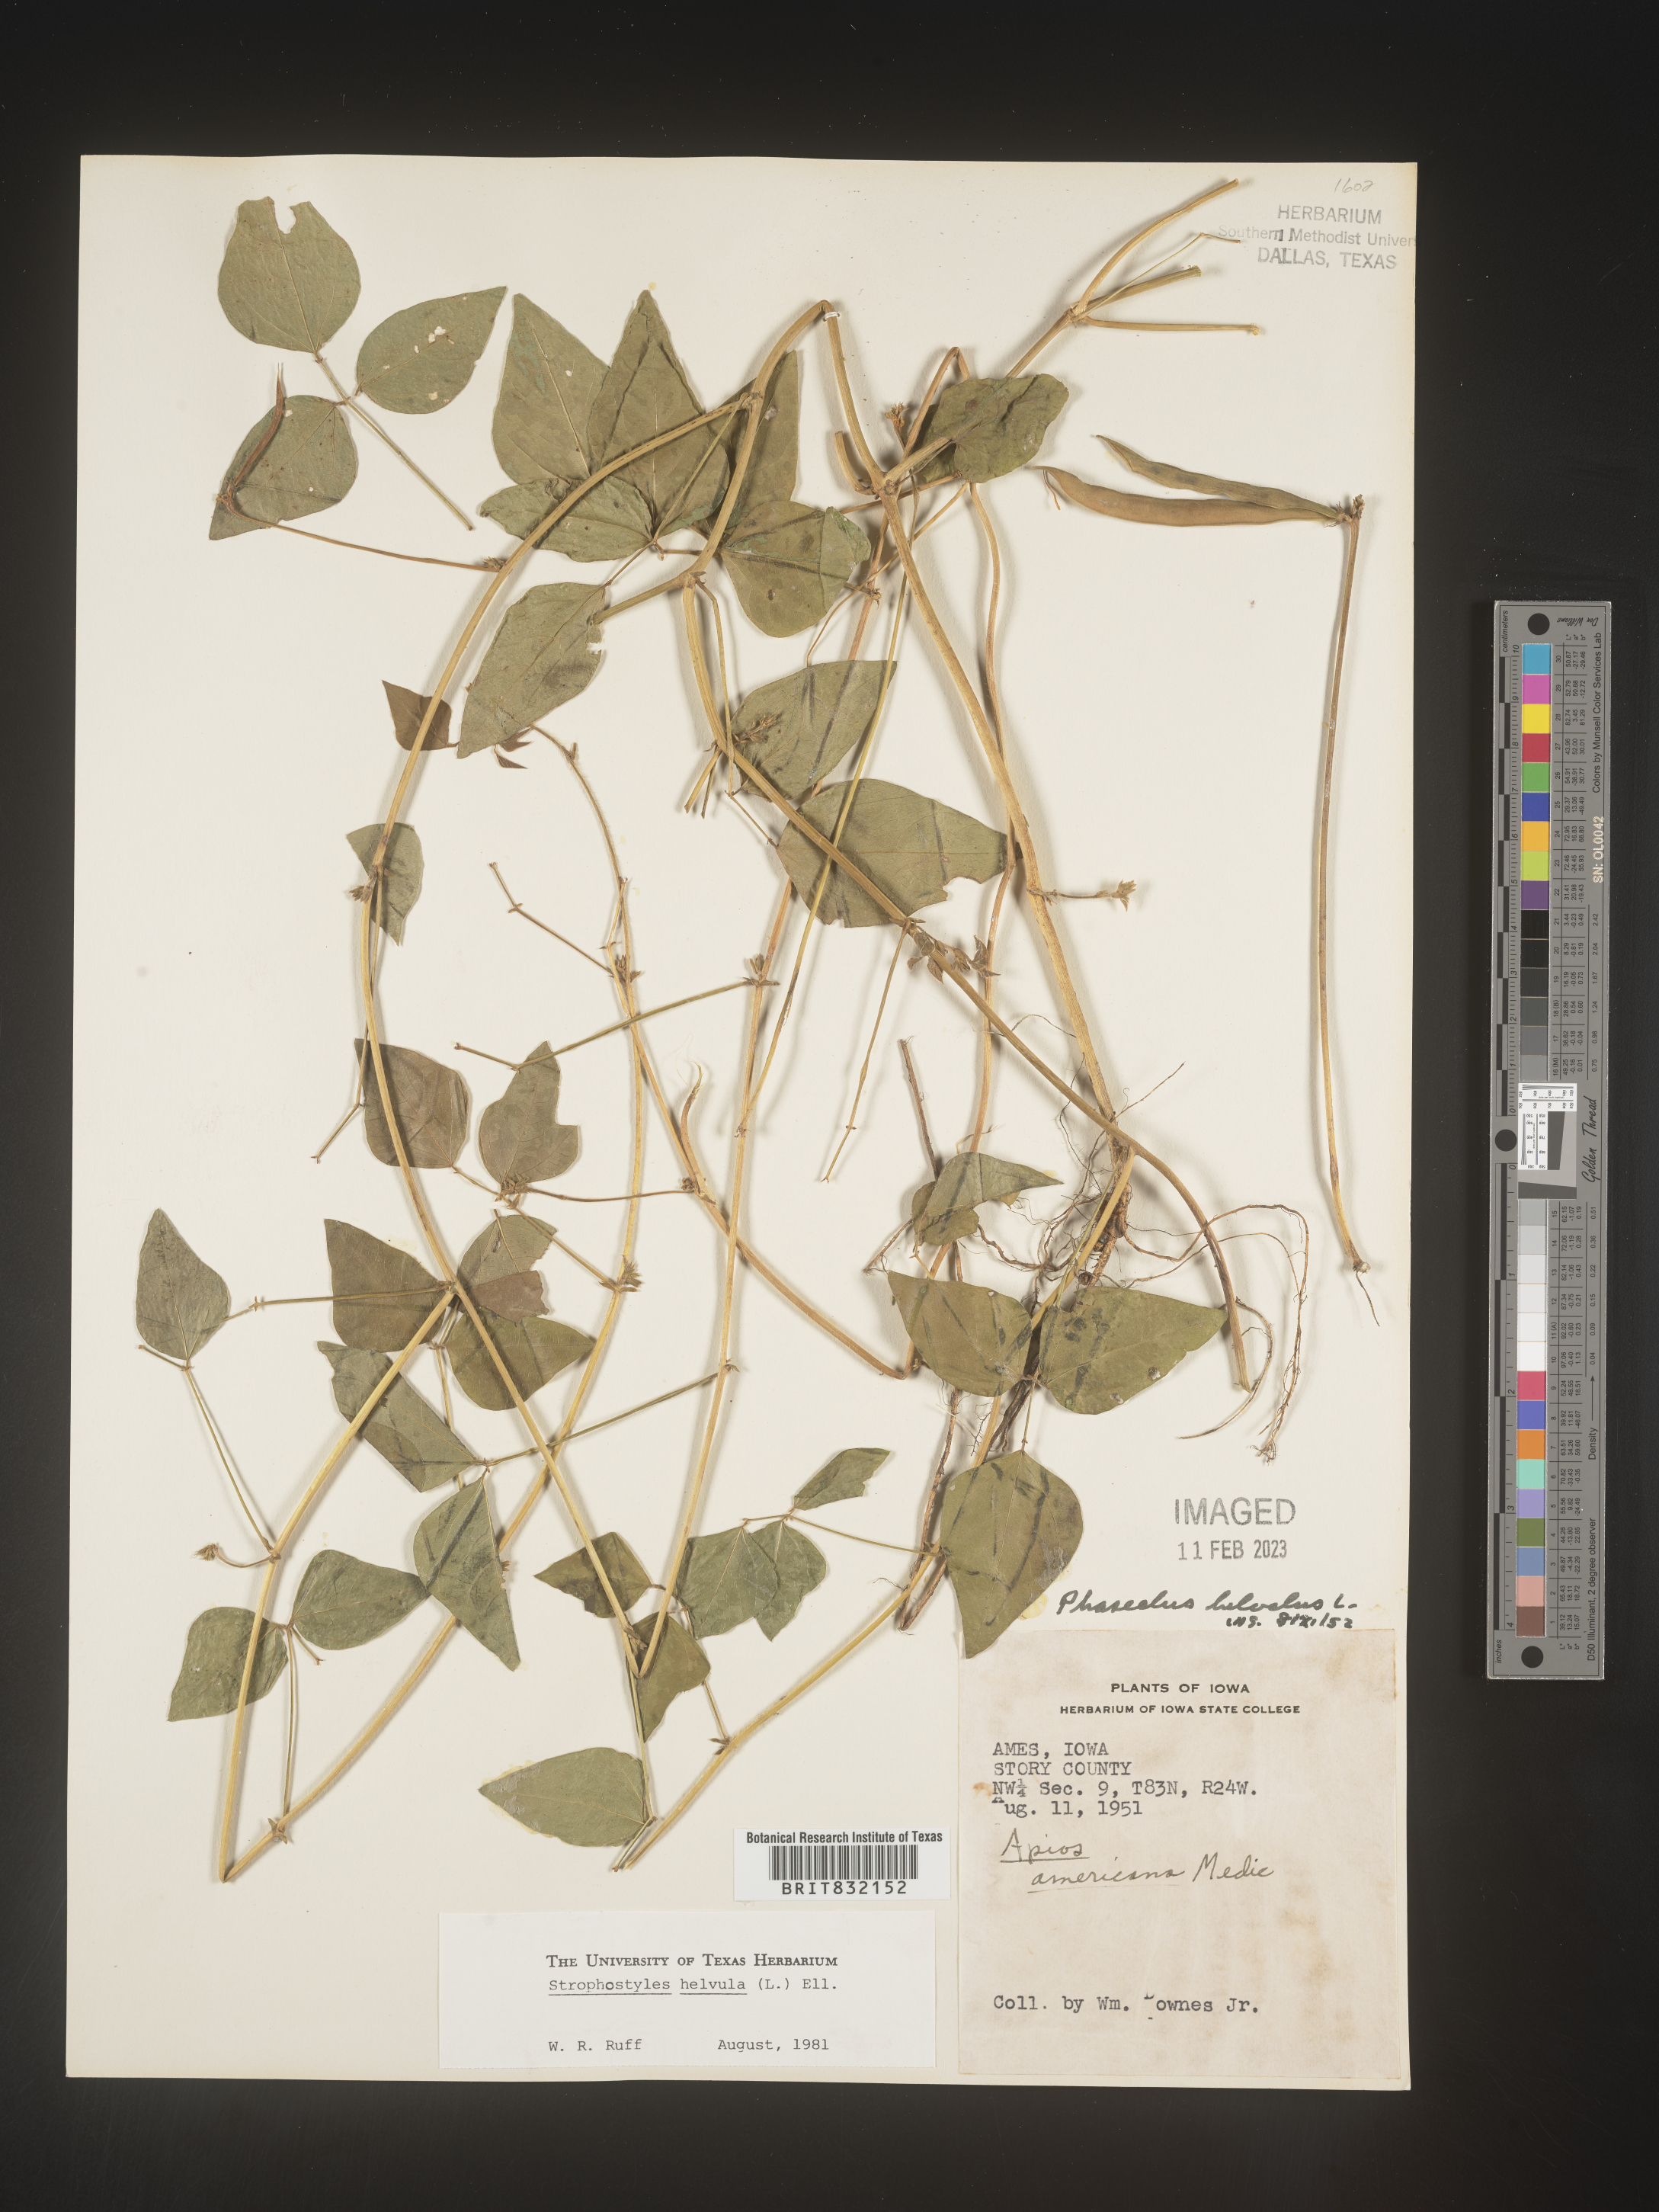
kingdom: Plantae
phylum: Tracheophyta
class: Magnoliopsida
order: Fabales
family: Fabaceae
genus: Strophostyles
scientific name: Strophostyles helvola
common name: Trailing wild bean
